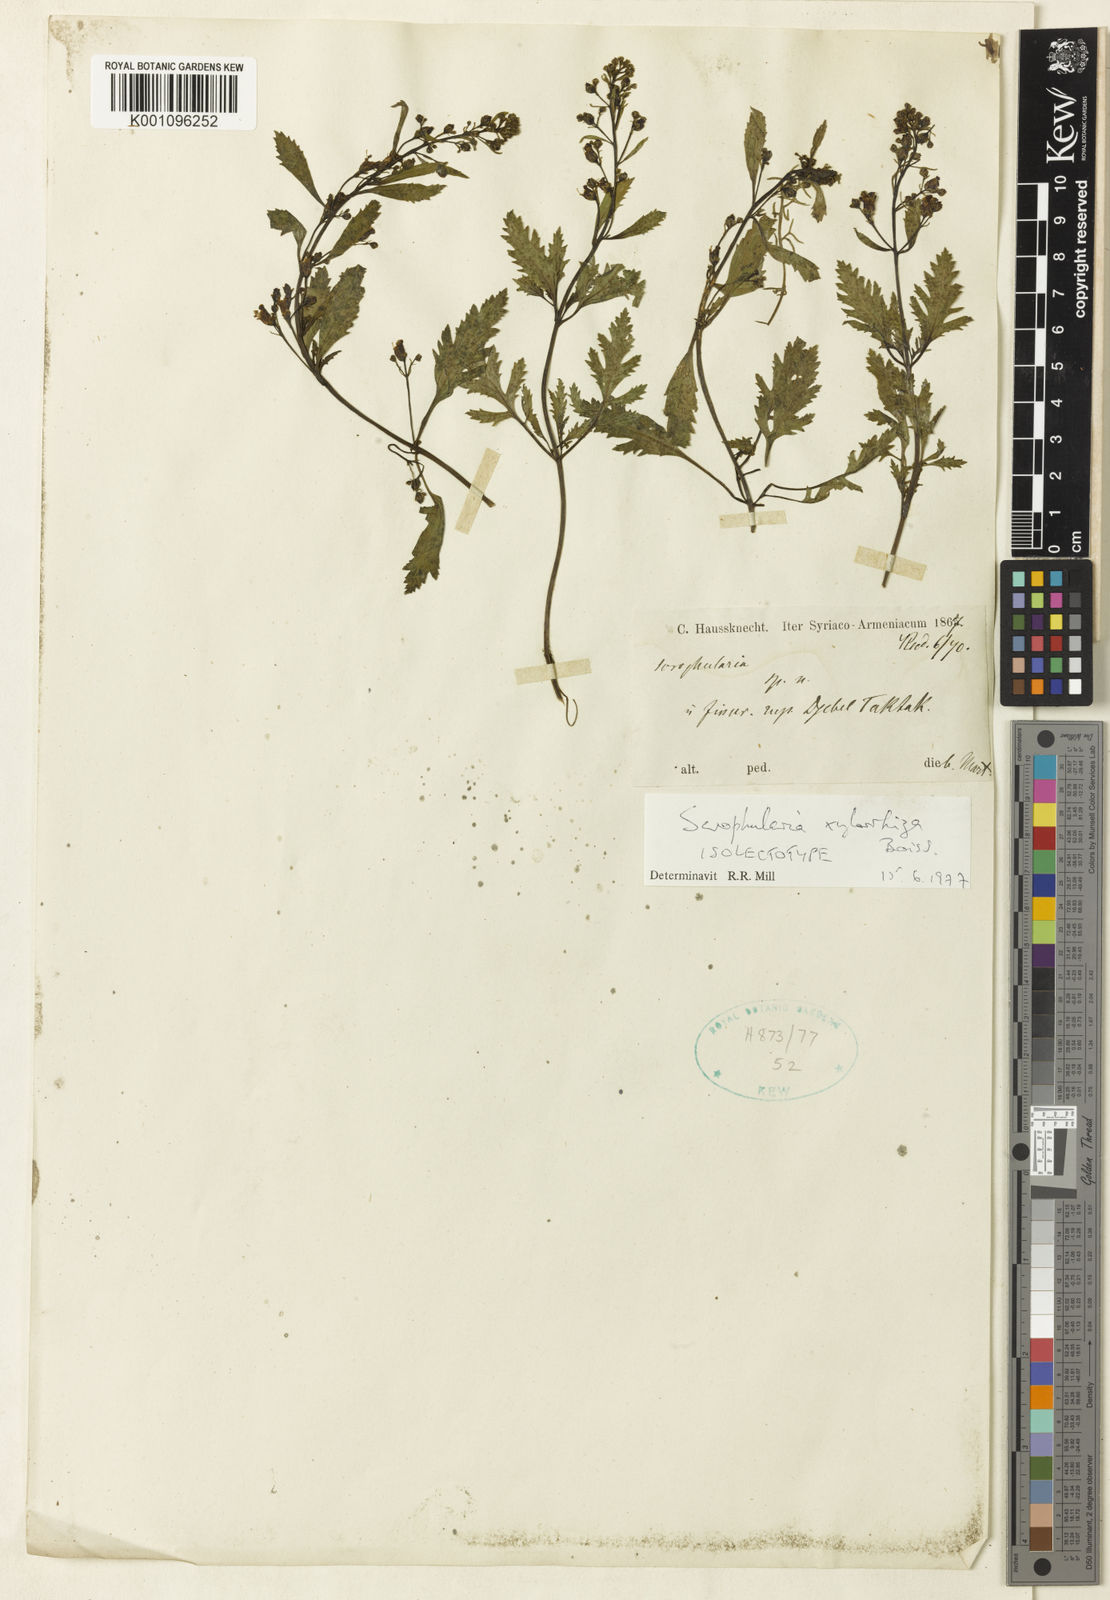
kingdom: Plantae
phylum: Tracheophyta
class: Magnoliopsida
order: Lamiales
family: Scrophulariaceae
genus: Scrophularia
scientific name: Scrophularia xylorrhiza
